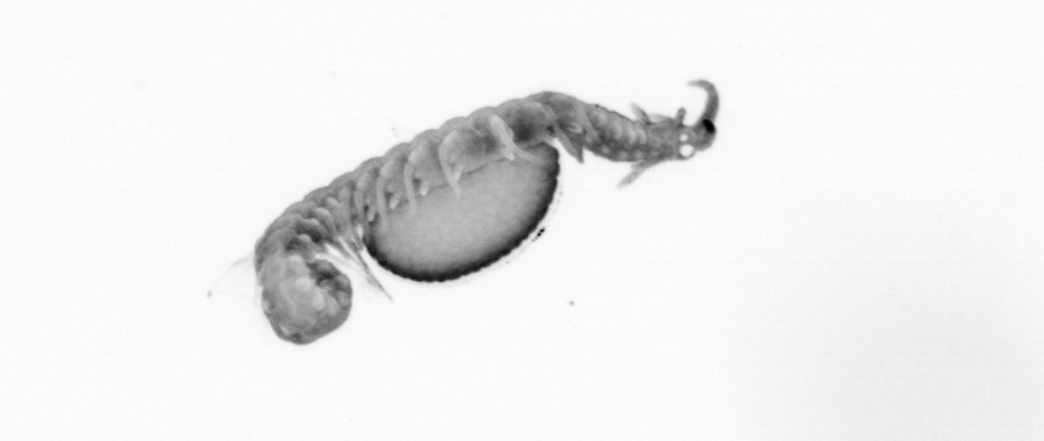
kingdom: Animalia
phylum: Annelida
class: Polychaeta
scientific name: Polychaeta
